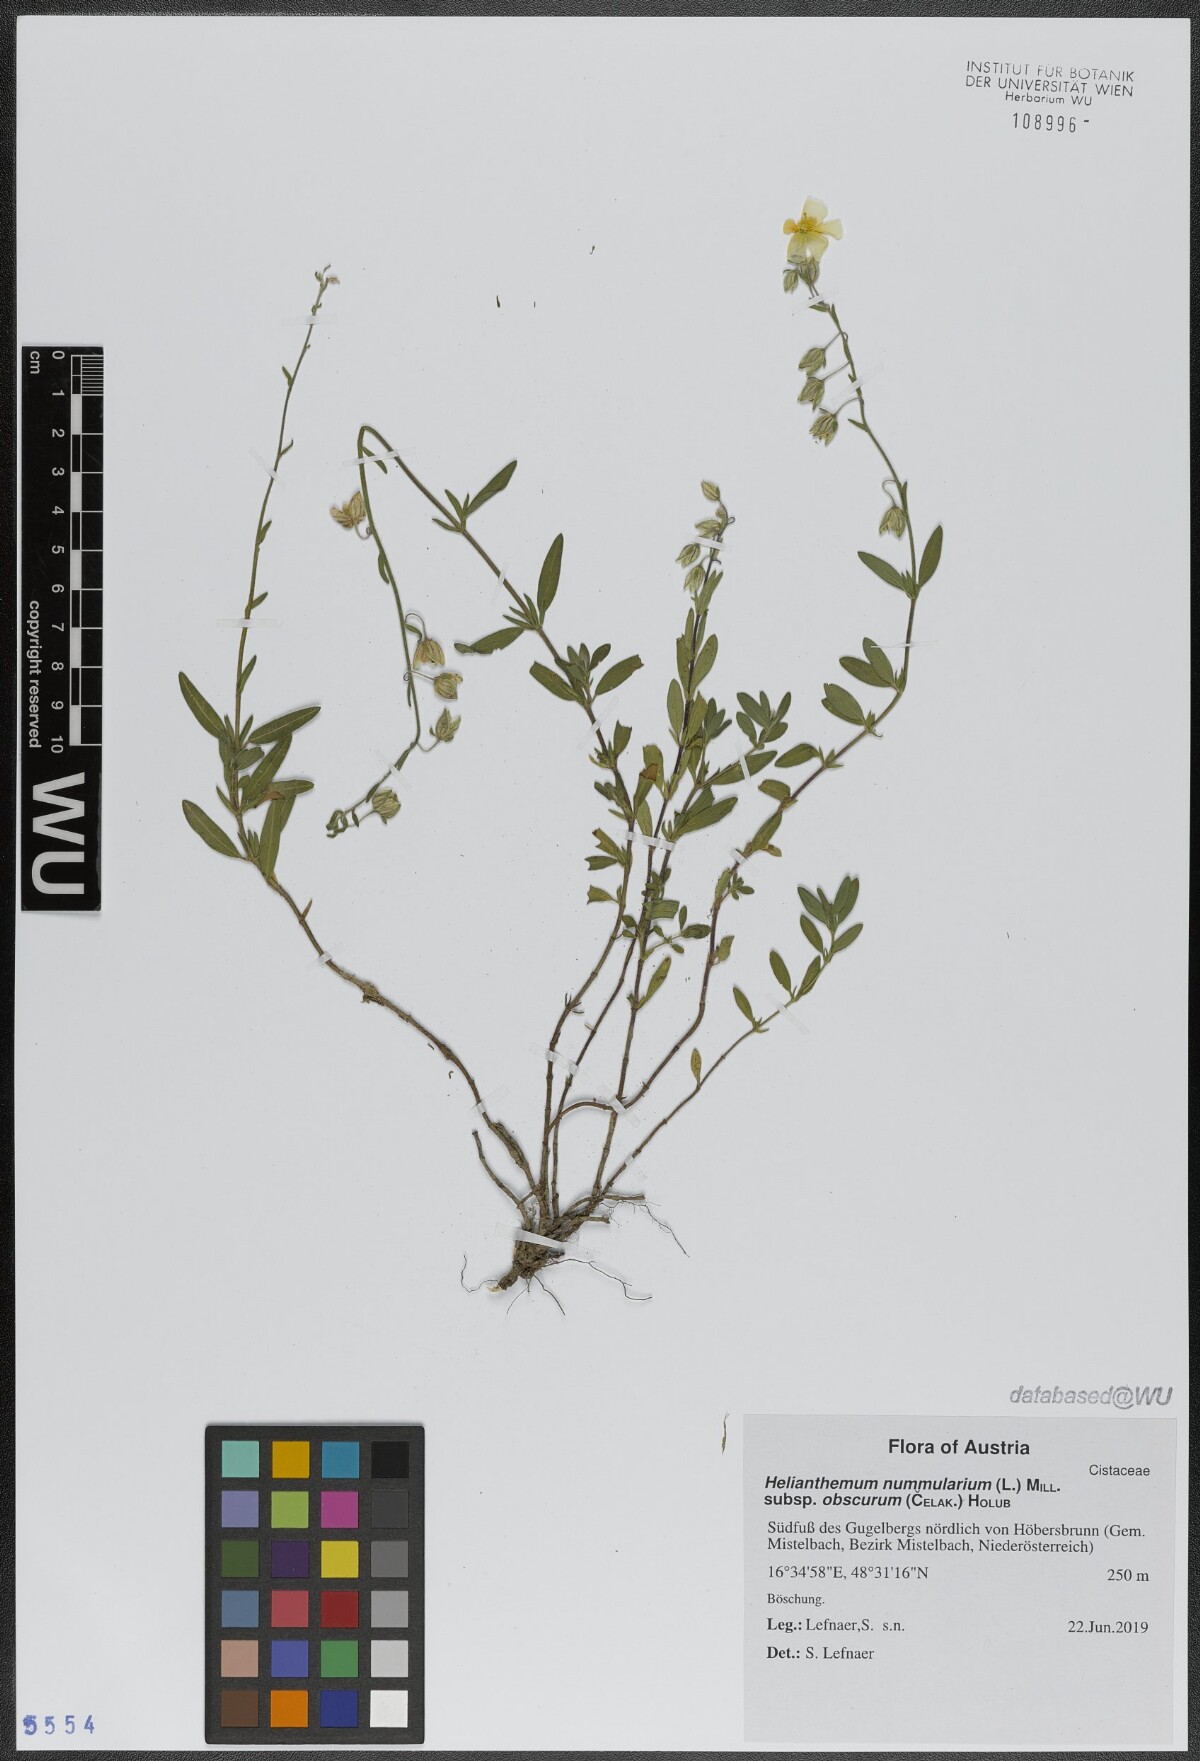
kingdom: Plantae
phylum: Tracheophyta
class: Magnoliopsida
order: Malvales
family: Cistaceae
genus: Helianthemum
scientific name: Helianthemum nummularium
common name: Common rock-rose
